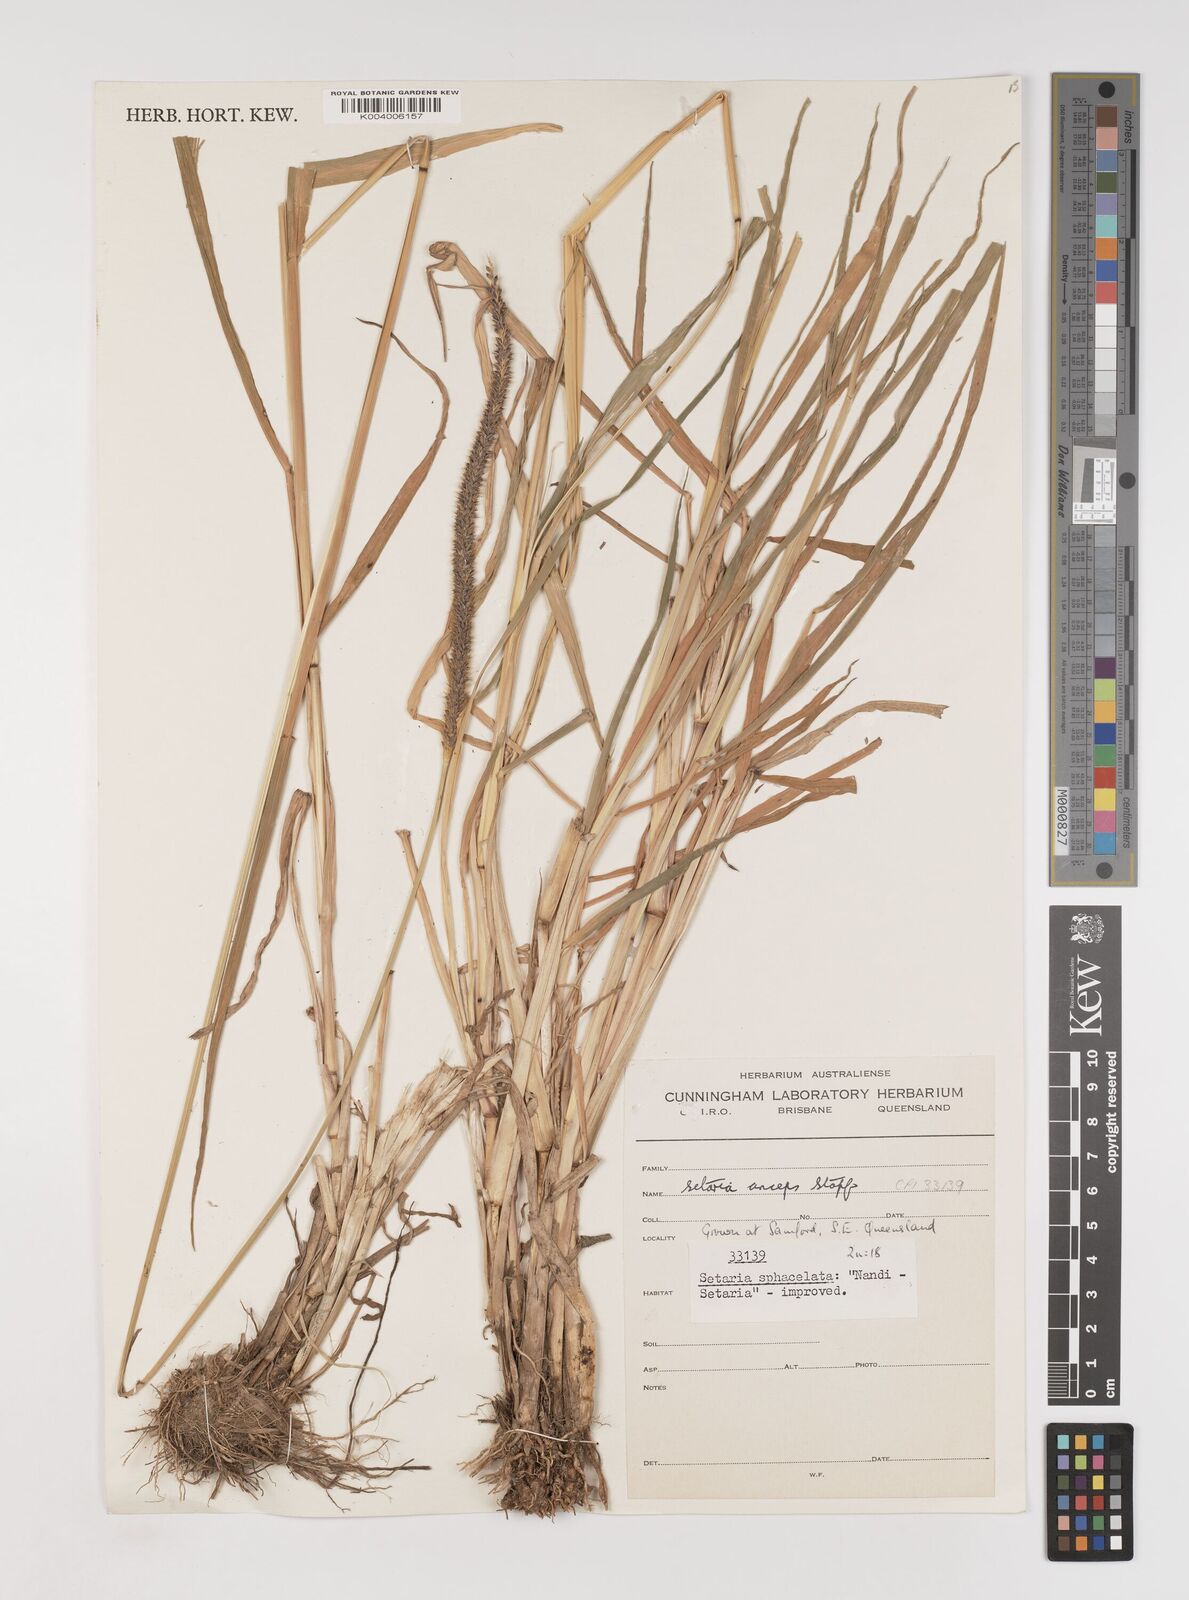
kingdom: Plantae
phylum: Tracheophyta
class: Liliopsida
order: Poales
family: Poaceae
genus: Setaria
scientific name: Setaria sphacelata
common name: African bristlegrass
